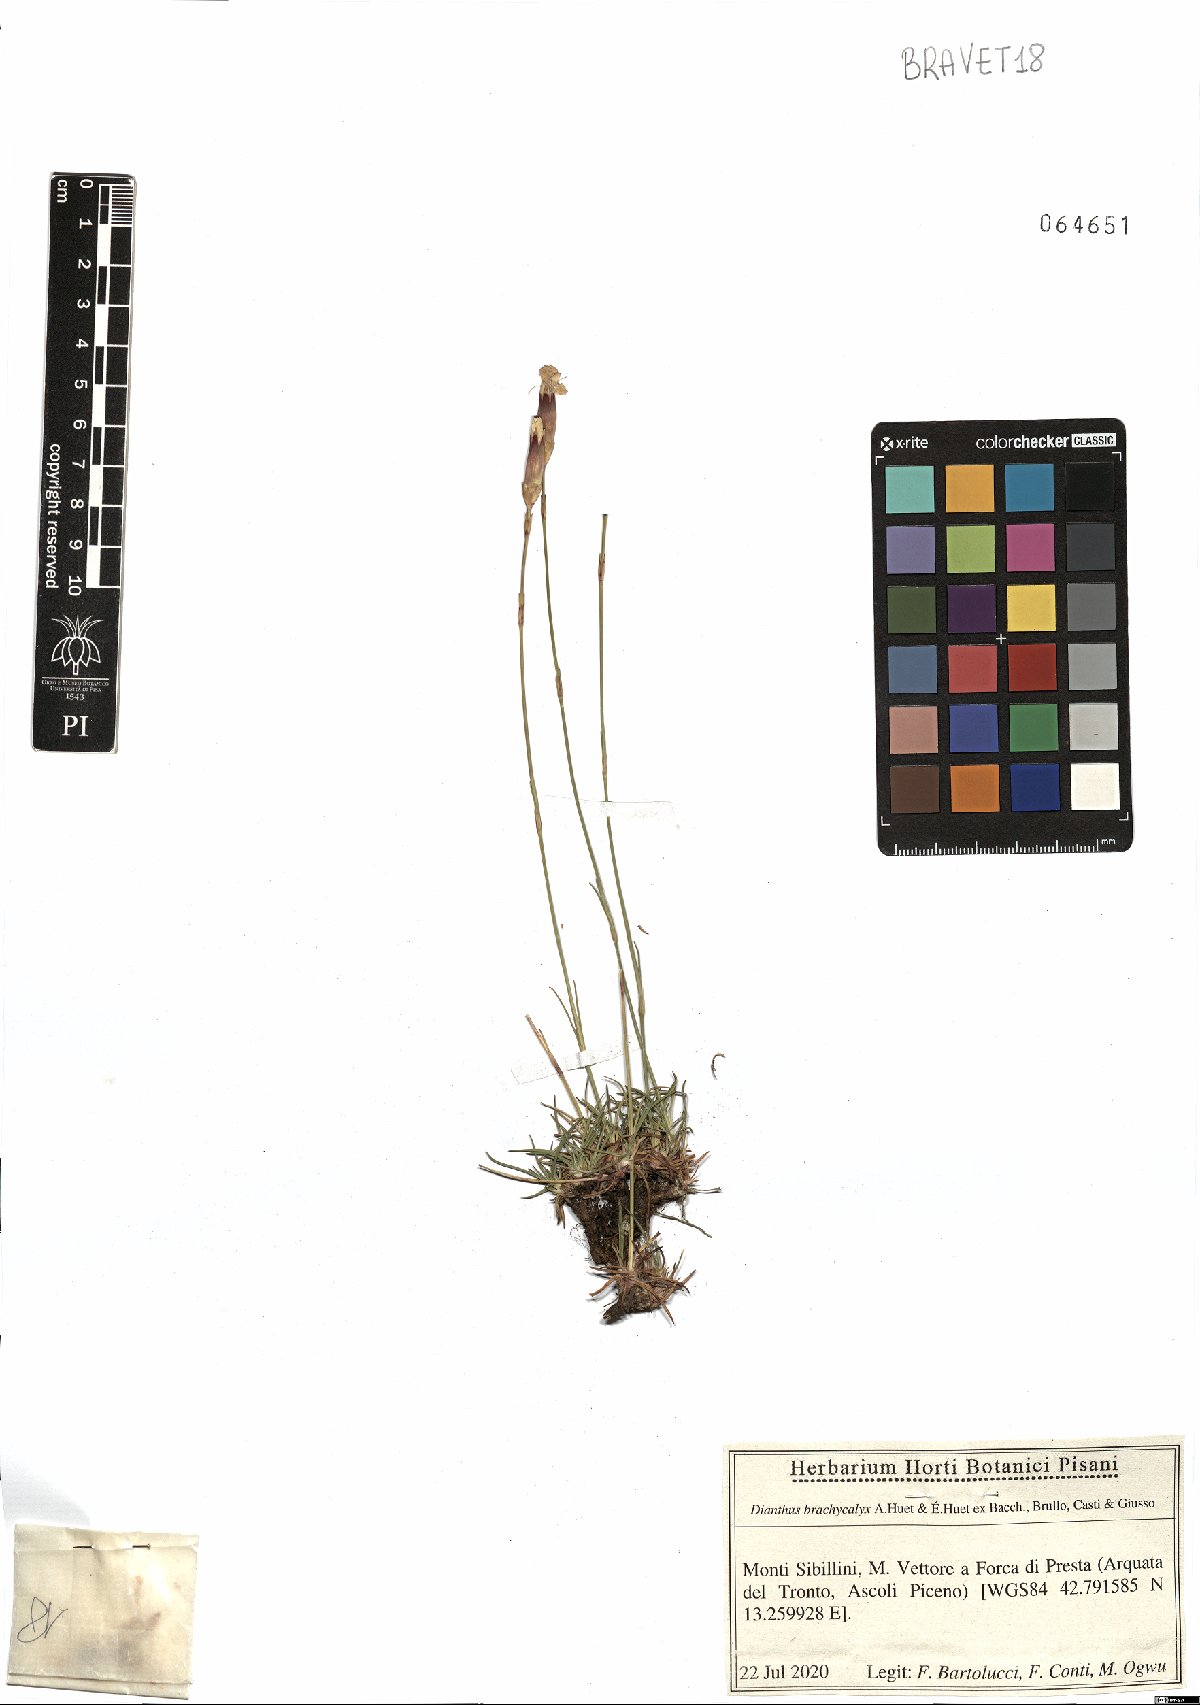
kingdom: Plantae
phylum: Tracheophyta
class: Magnoliopsida
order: Caryophyllales
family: Caryophyllaceae
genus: Dianthus
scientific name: Dianthus brachycalyx
